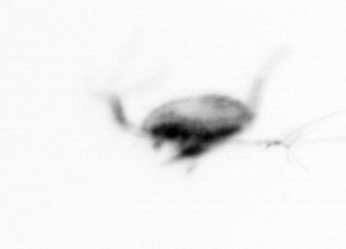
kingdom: Animalia
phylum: Arthropoda
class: Copepoda
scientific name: Copepoda
